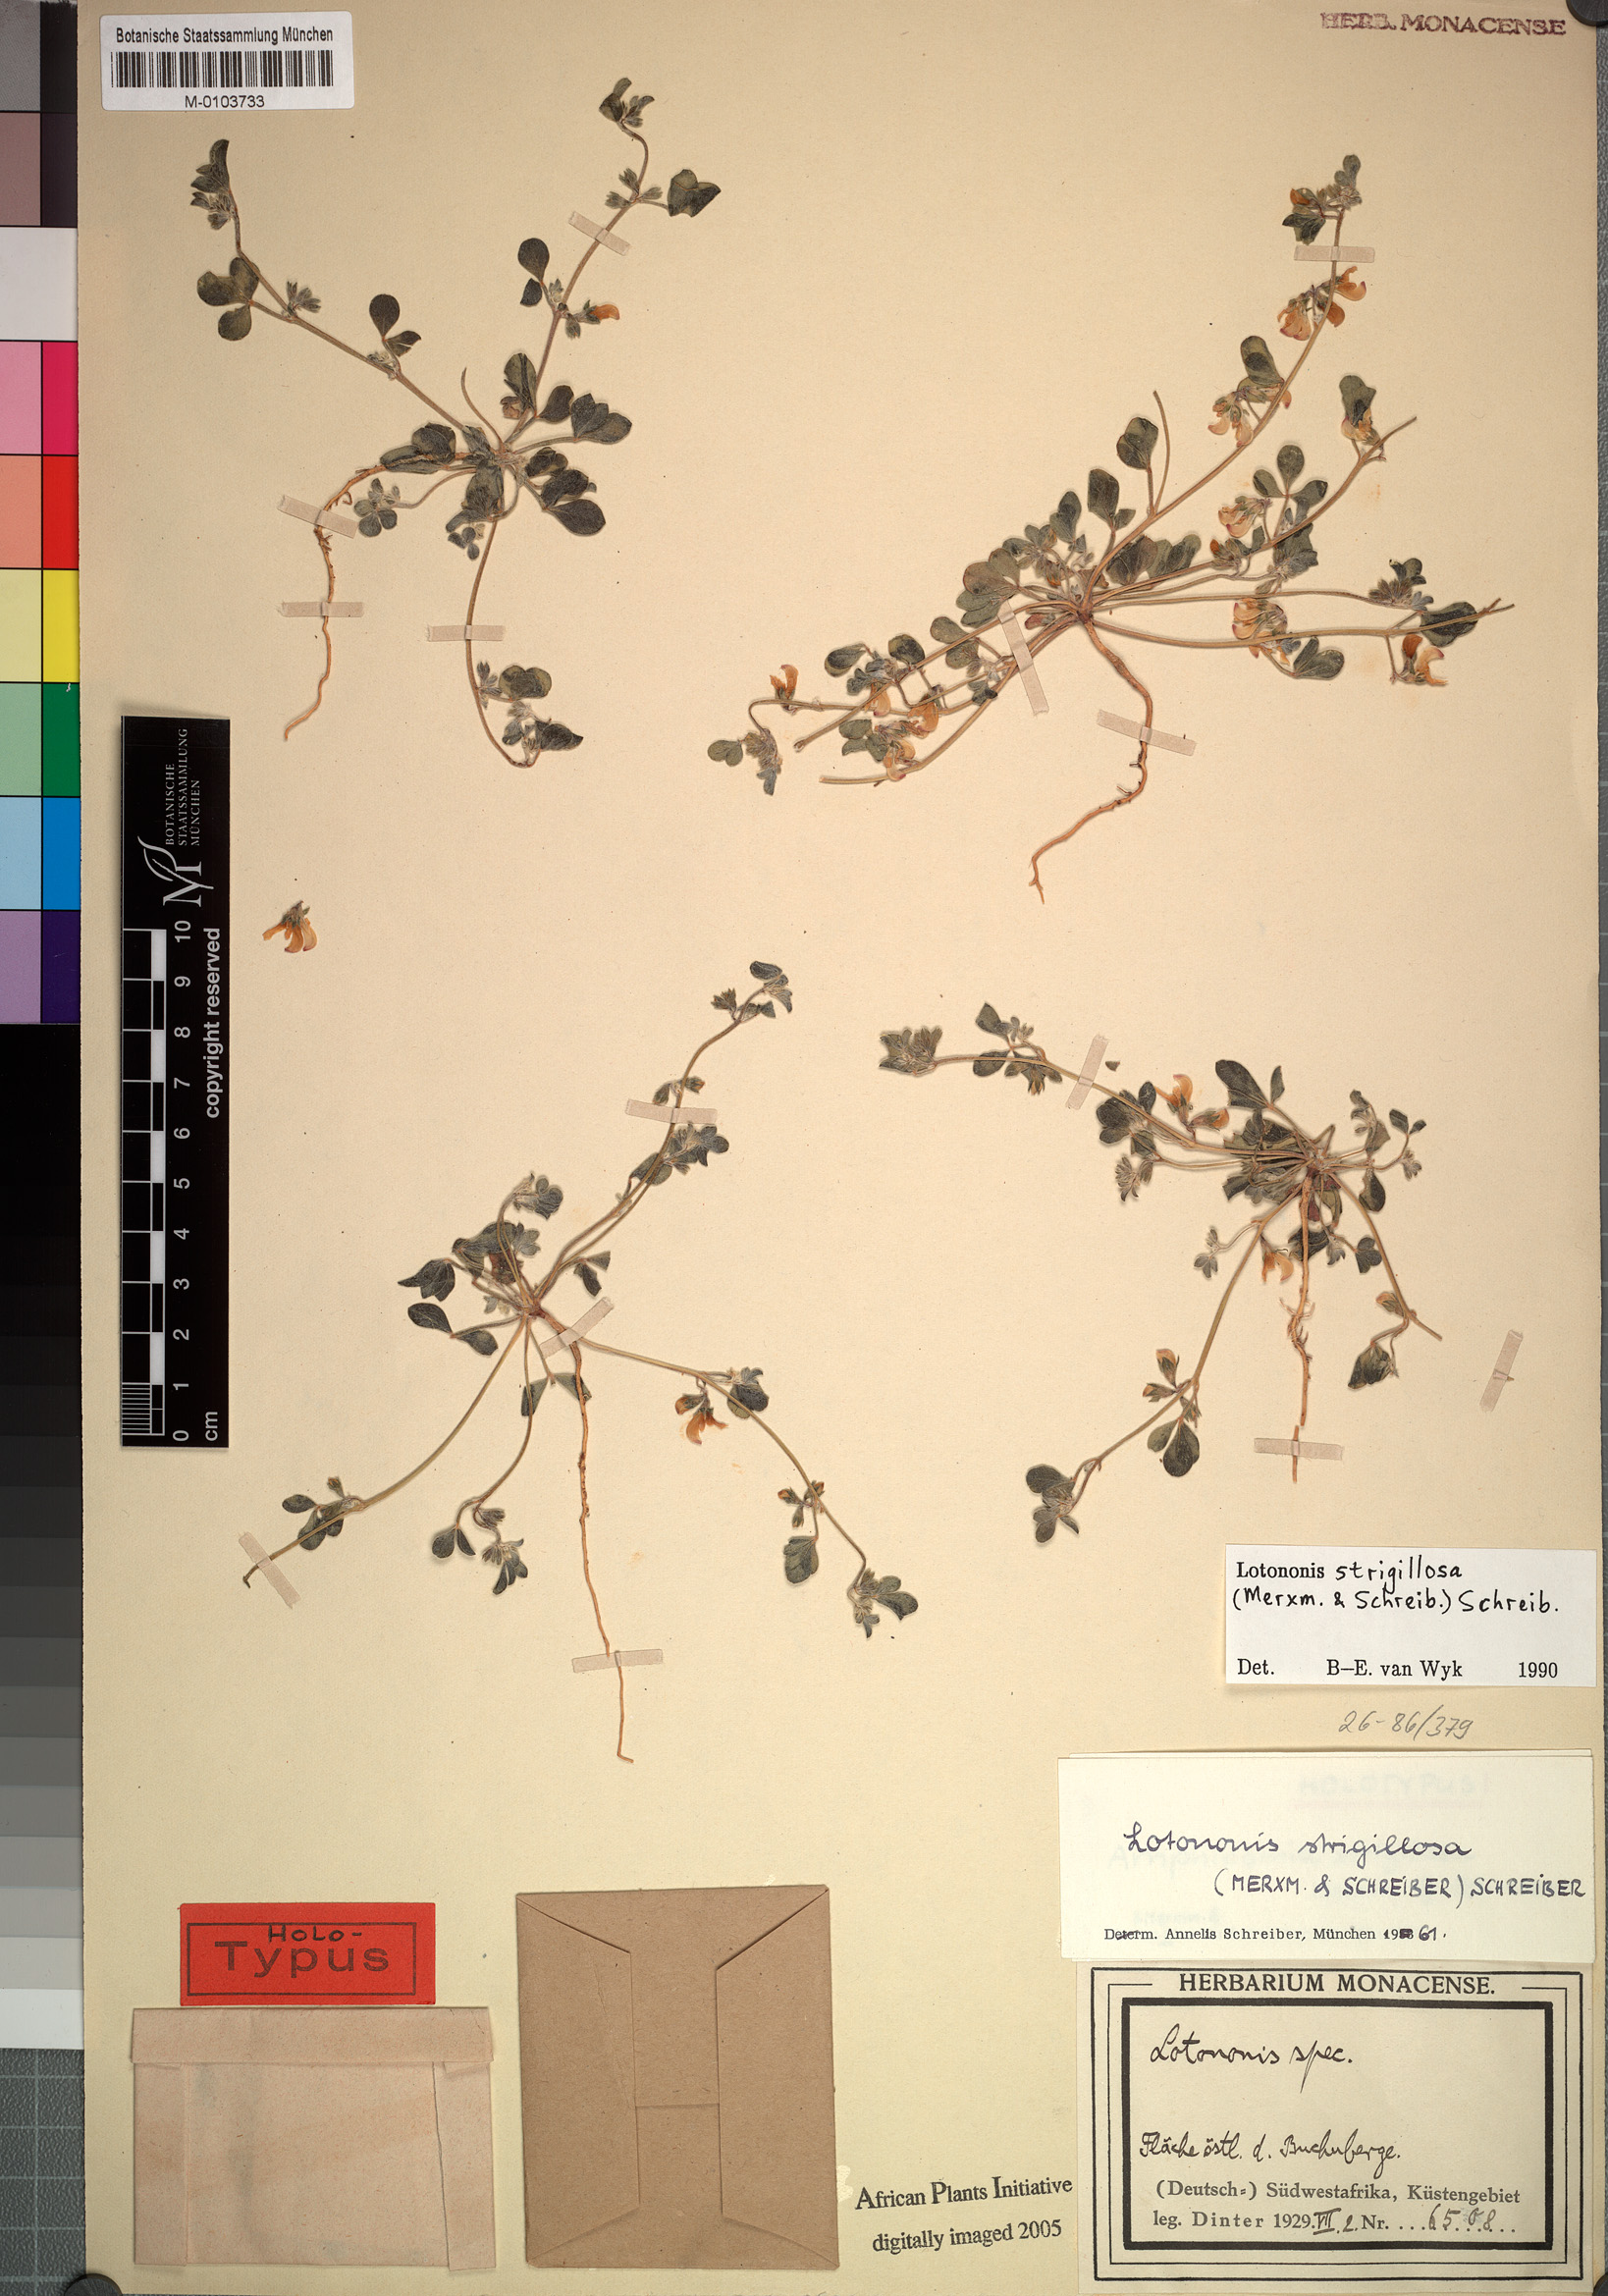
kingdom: Plantae
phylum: Tracheophyta
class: Magnoliopsida
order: Fabales
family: Fabaceae
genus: Lotononis
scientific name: Lotononis strigillosa
